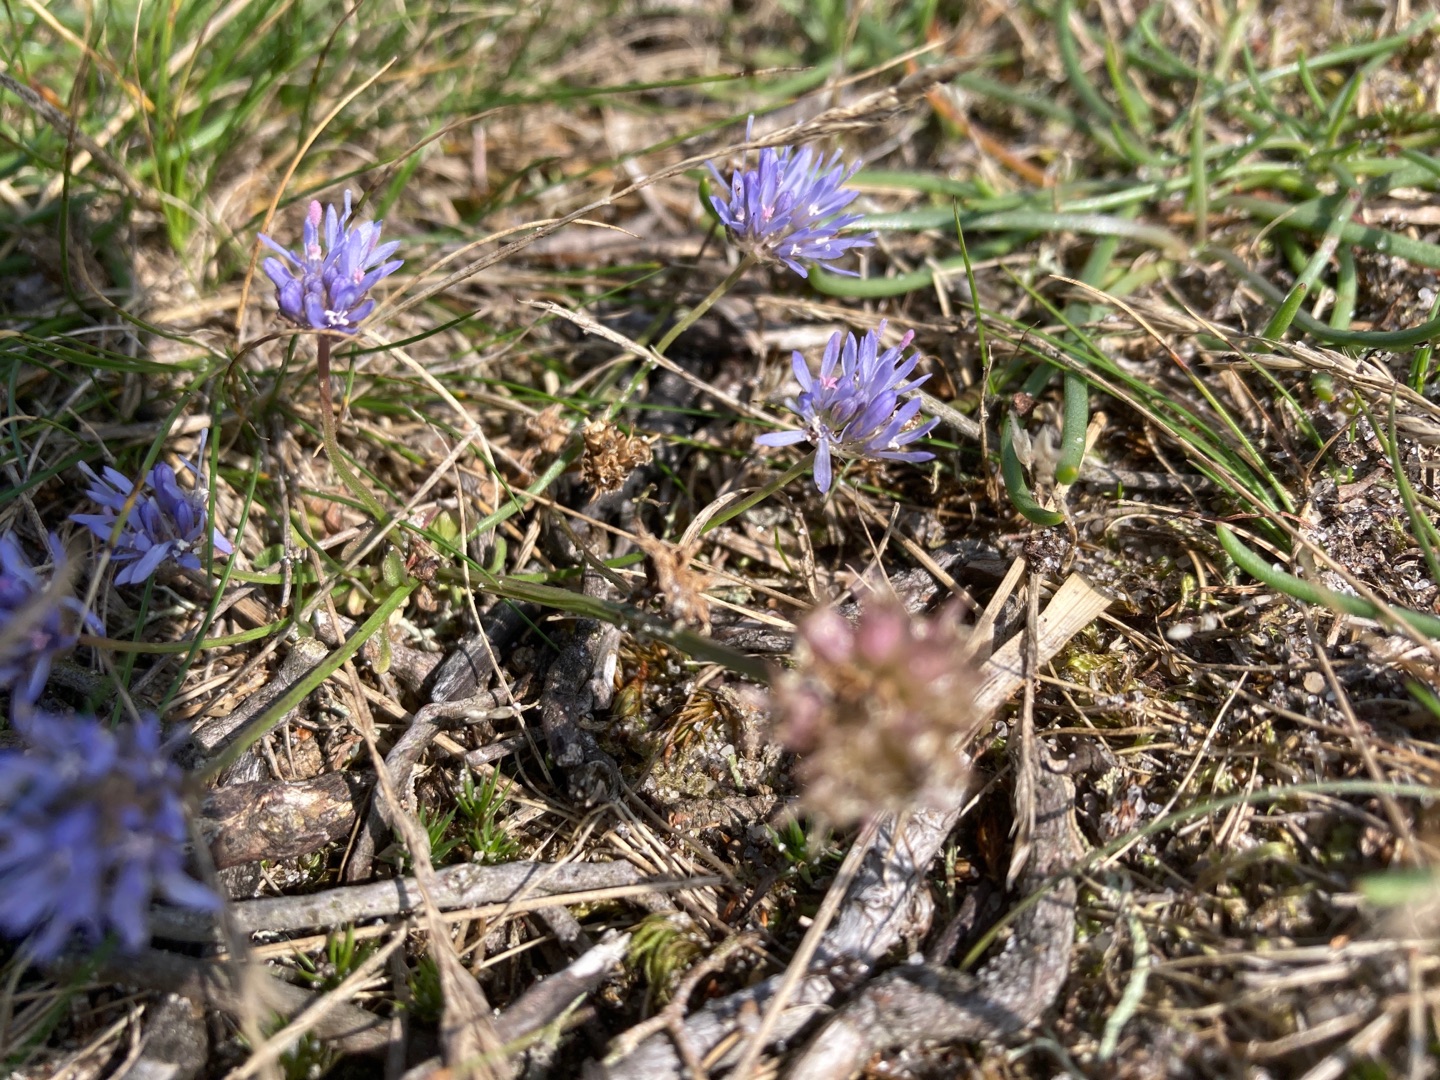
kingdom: Plantae
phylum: Tracheophyta
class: Magnoliopsida
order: Asterales
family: Campanulaceae
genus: Jasione
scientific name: Jasione montana
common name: Blåmunke
